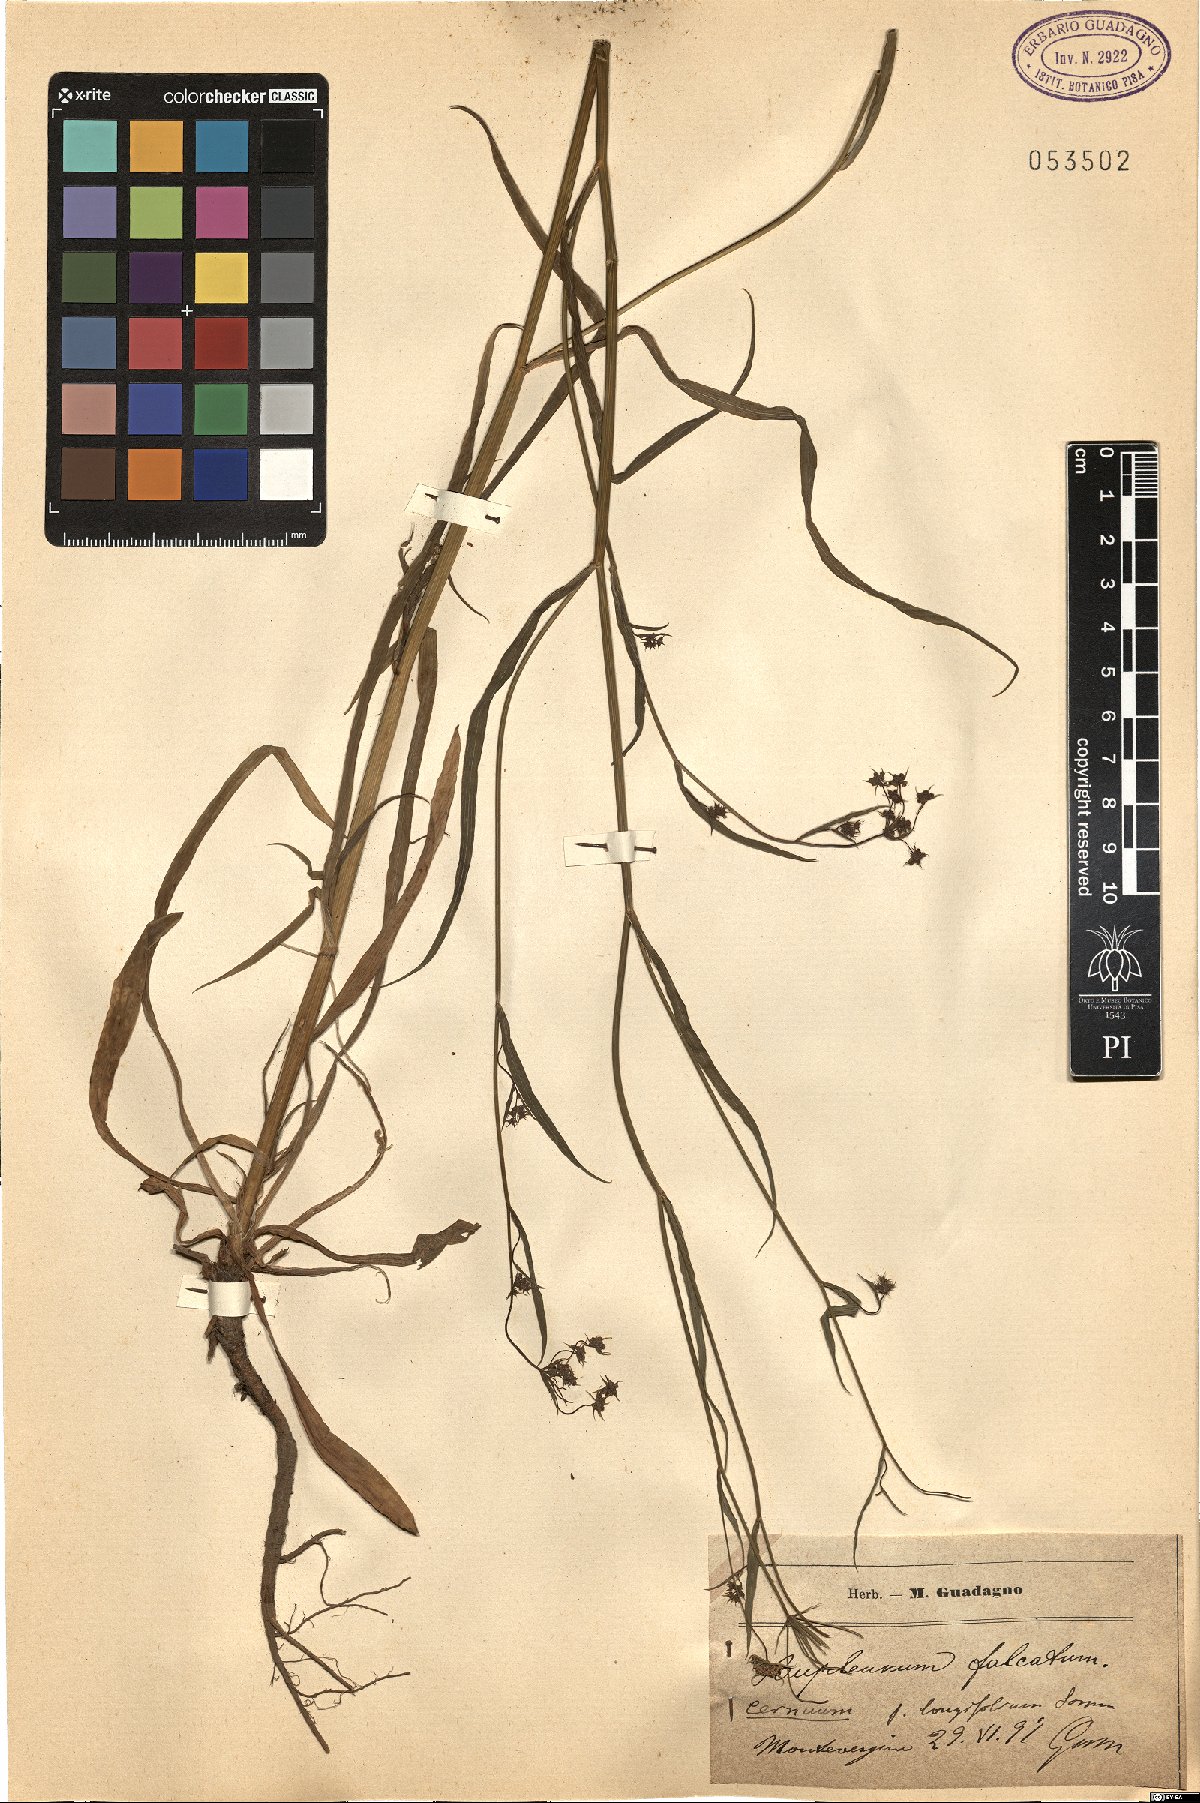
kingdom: Plantae
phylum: Tracheophyta
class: Magnoliopsida
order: Apiales
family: Apiaceae
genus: Bupleurum
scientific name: Bupleurum exaltatum
